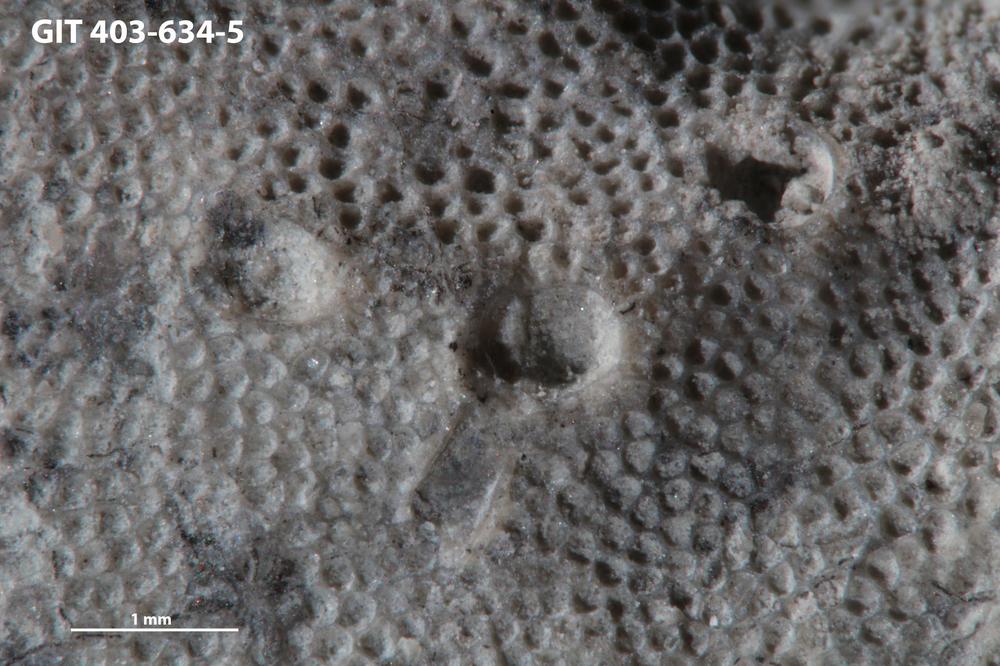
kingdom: Animalia
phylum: Cnidaria
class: Hydrozoa
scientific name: Hydrozoa
